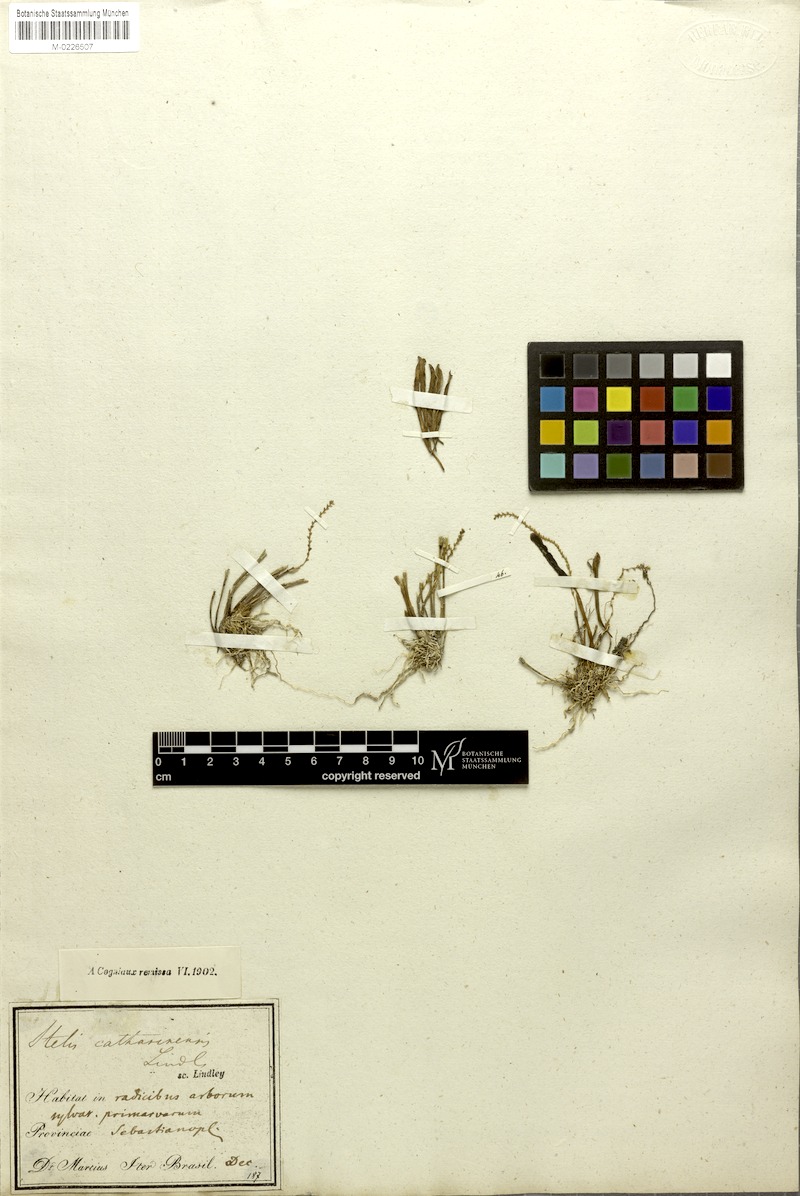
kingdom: Plantae
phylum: Tracheophyta
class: Liliopsida
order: Asparagales
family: Orchidaceae
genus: Stelis
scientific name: Stelis aprica
